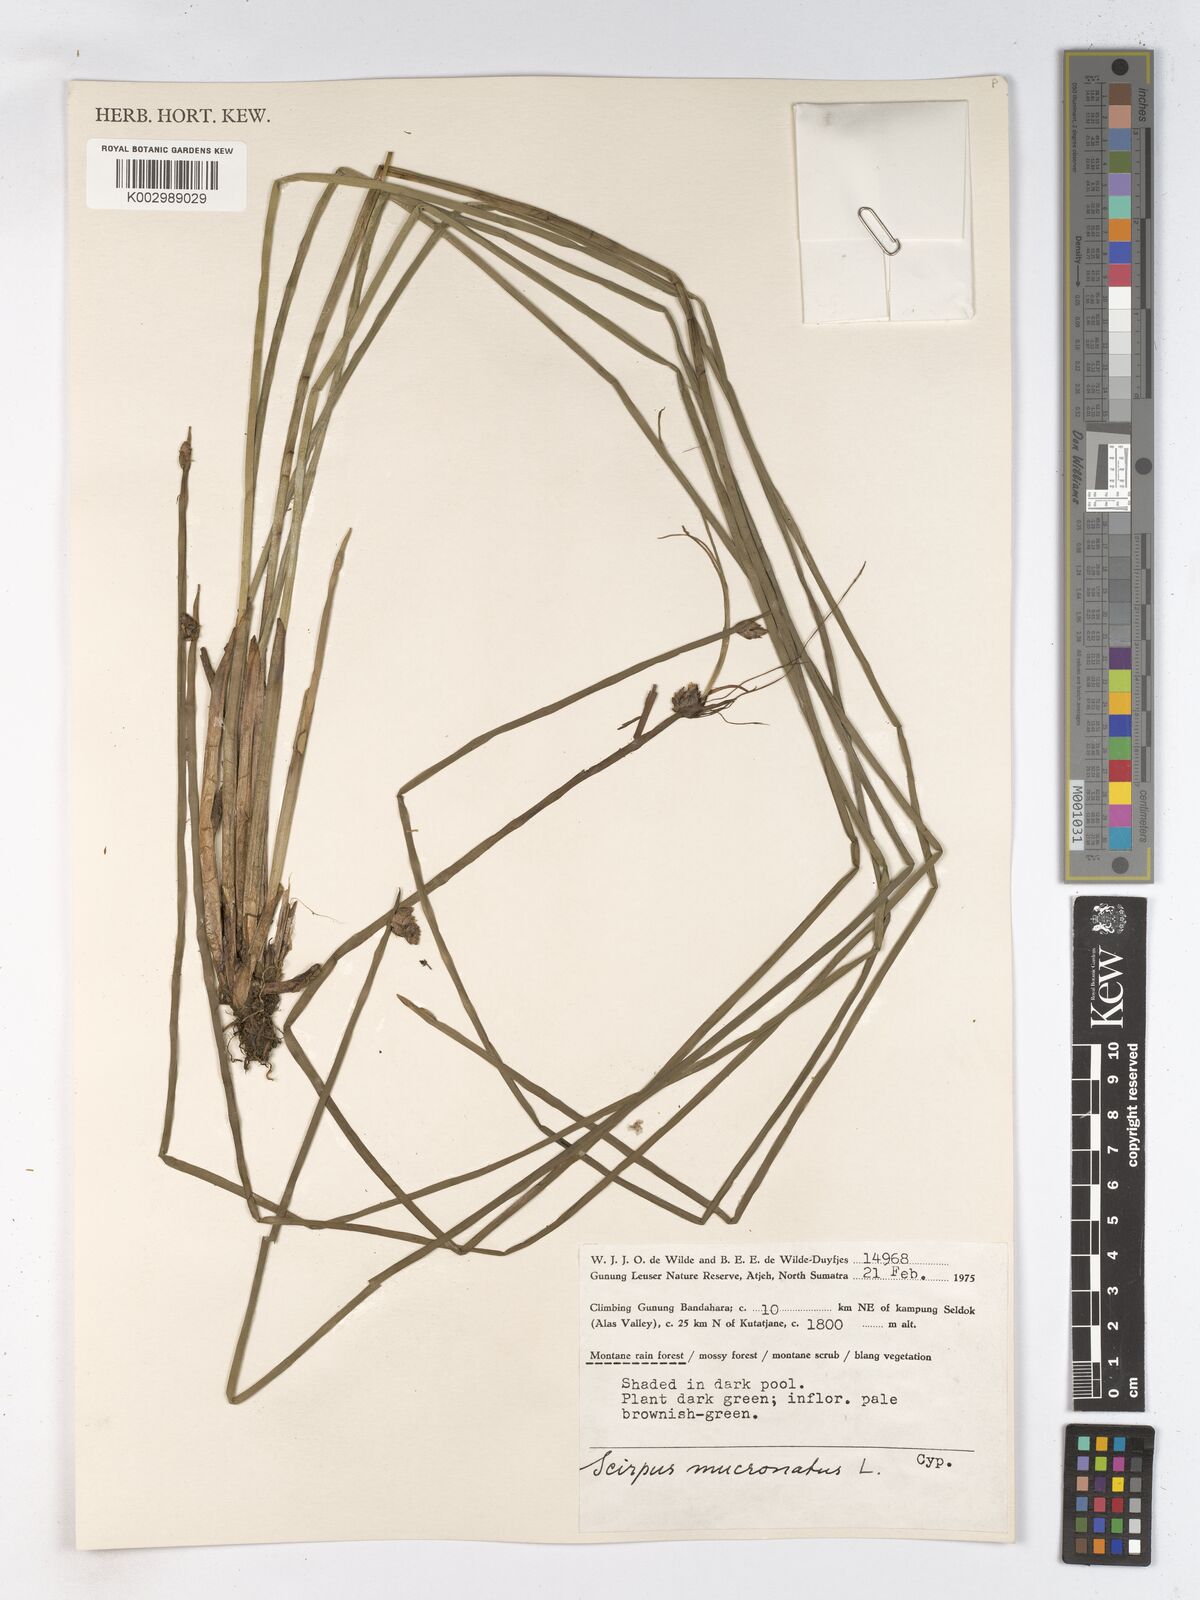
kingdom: Plantae
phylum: Tracheophyta
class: Liliopsida
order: Poales
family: Cyperaceae
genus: Schoenoplectiella
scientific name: Schoenoplectiella mucronata
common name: Bog bulrush
